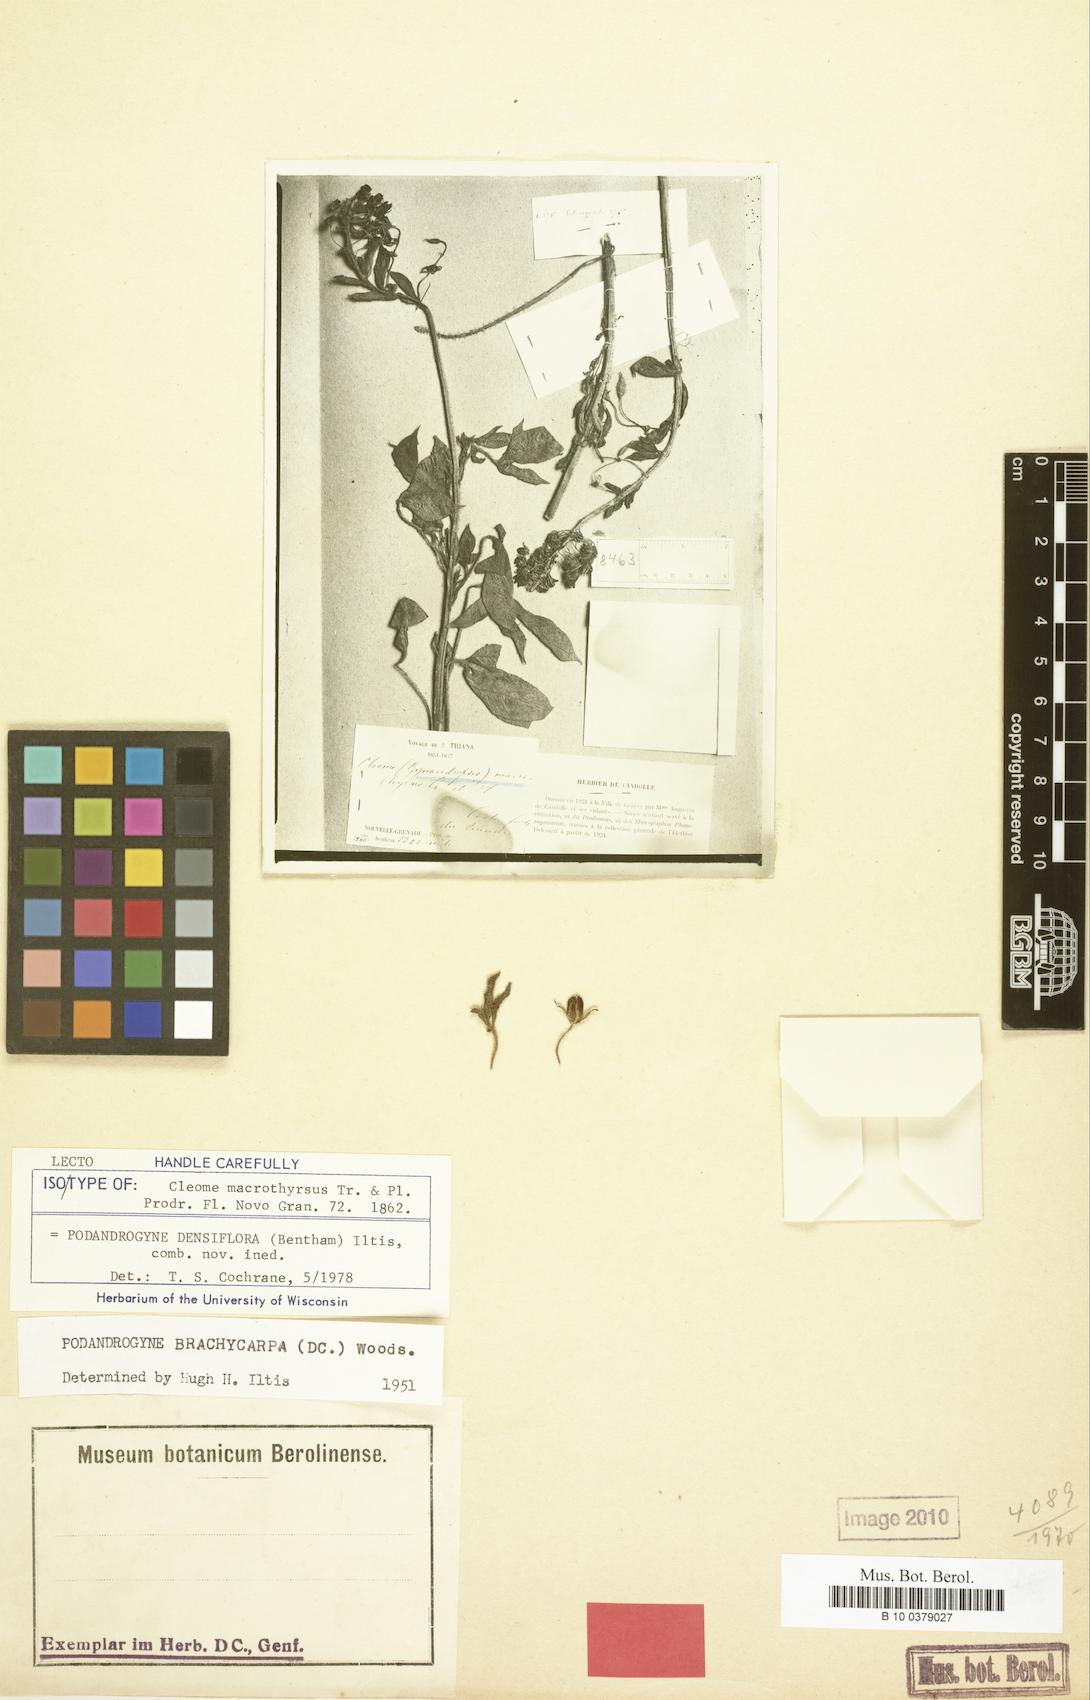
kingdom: Plantae
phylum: Tracheophyta
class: Magnoliopsida
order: Brassicales
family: Cleomaceae
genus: Podandrogyne
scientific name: Podandrogyne densiflora
